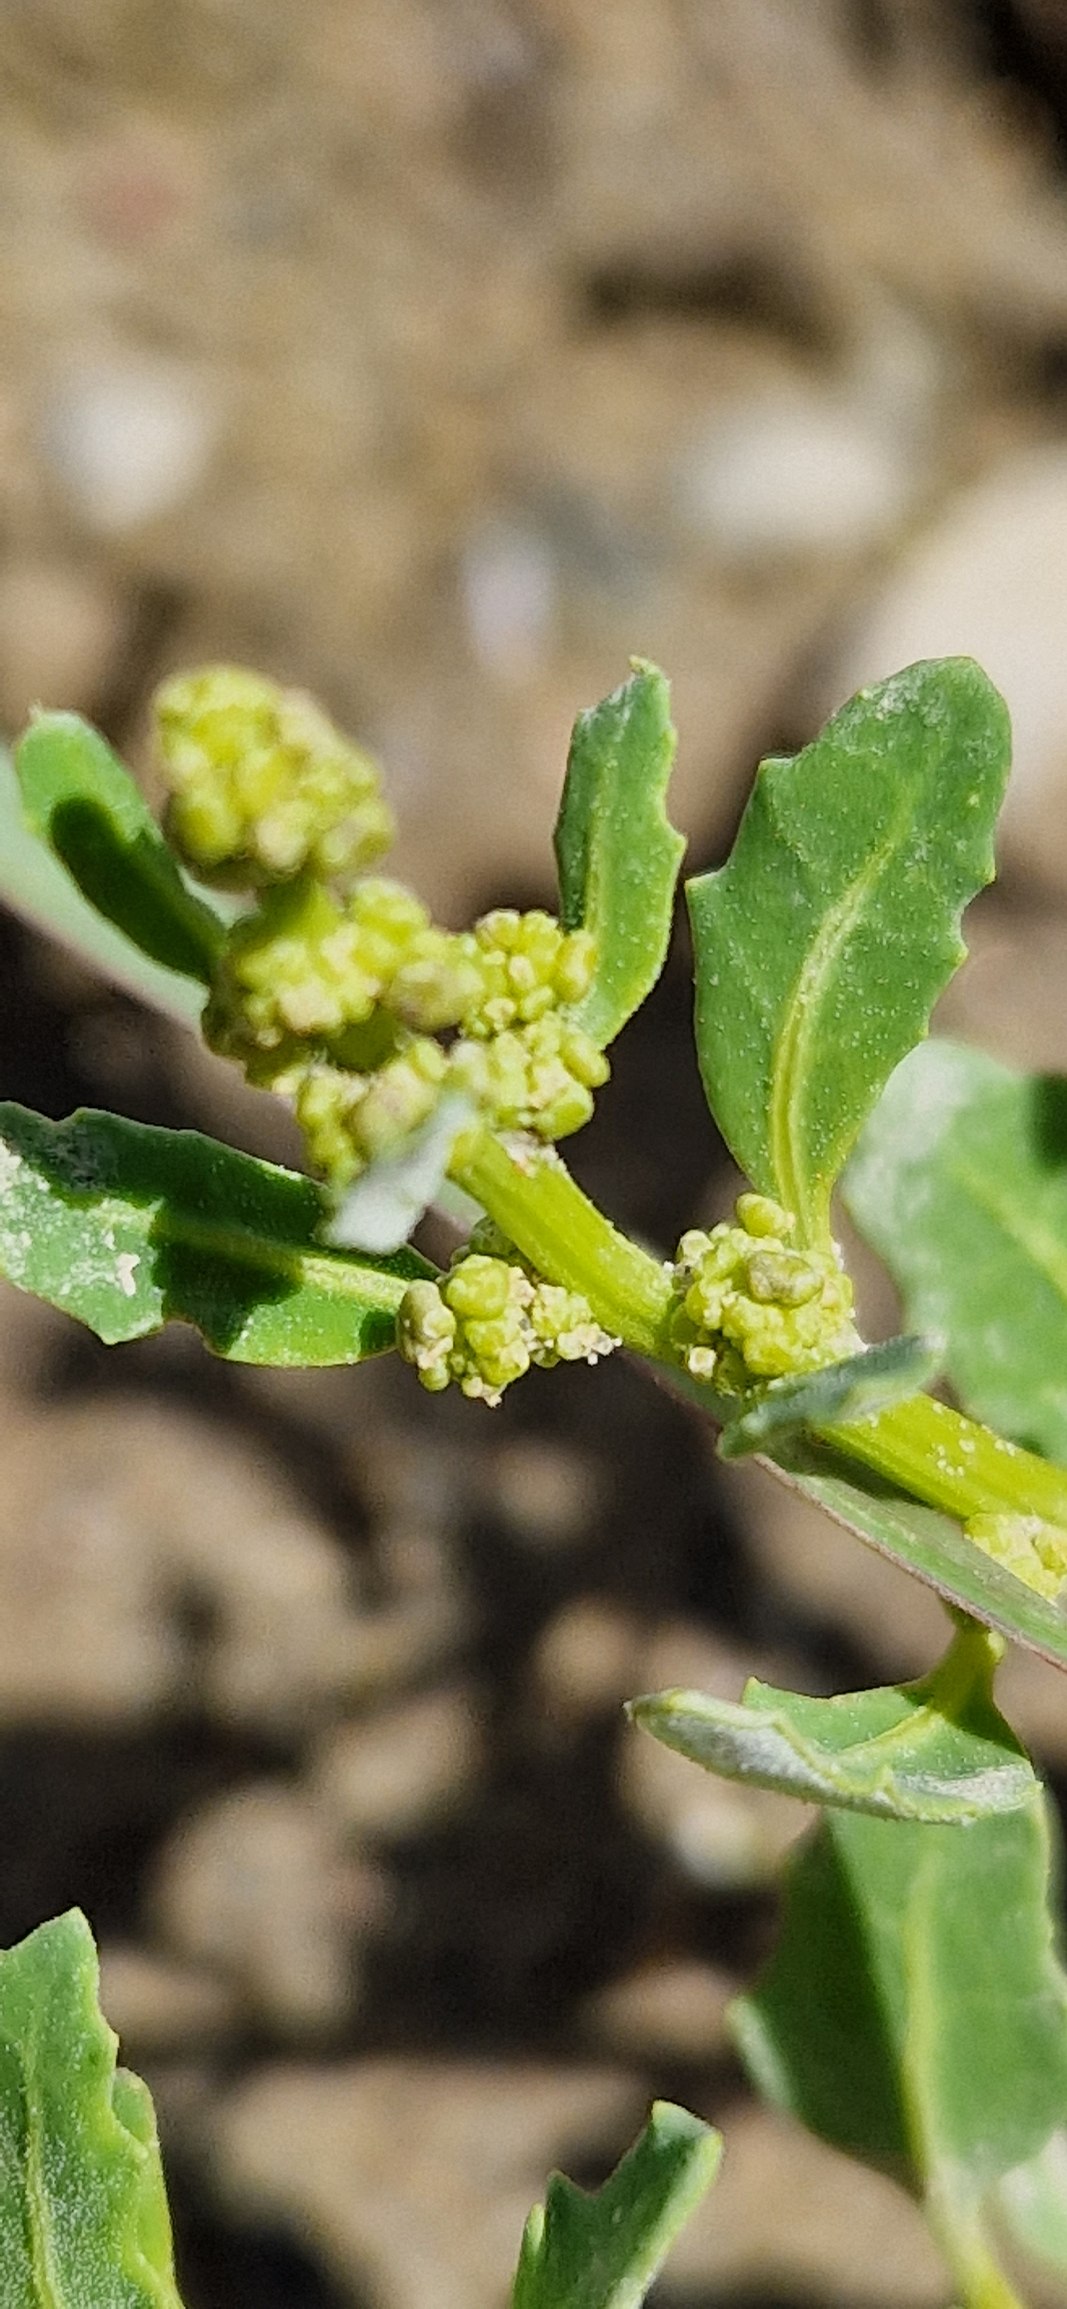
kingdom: Plantae
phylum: Tracheophyta
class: Magnoliopsida
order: Caryophyllales
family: Amaranthaceae
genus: Oxybasis
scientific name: Oxybasis glauca
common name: Blågrøn gåsefod
